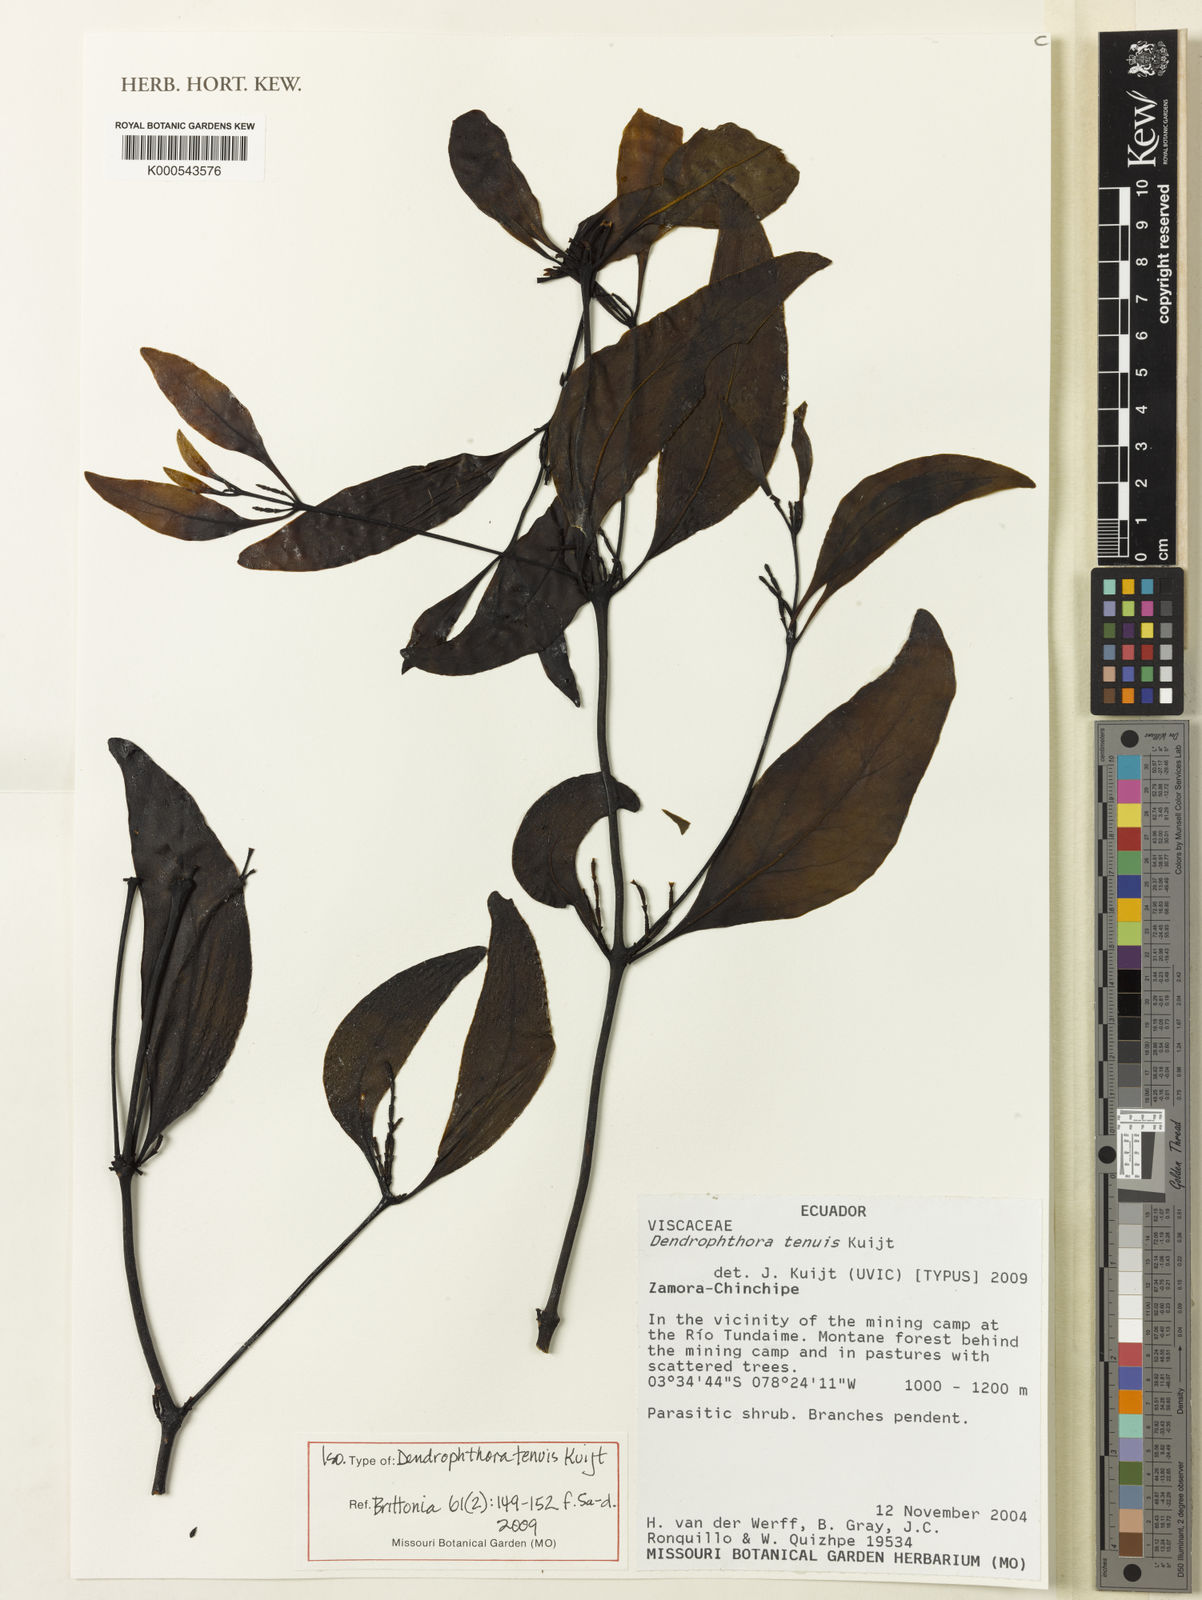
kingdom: Plantae
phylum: Tracheophyta
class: Magnoliopsida
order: Santalales
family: Viscaceae
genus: Dendrophthora
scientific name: Dendrophthora tenuis
